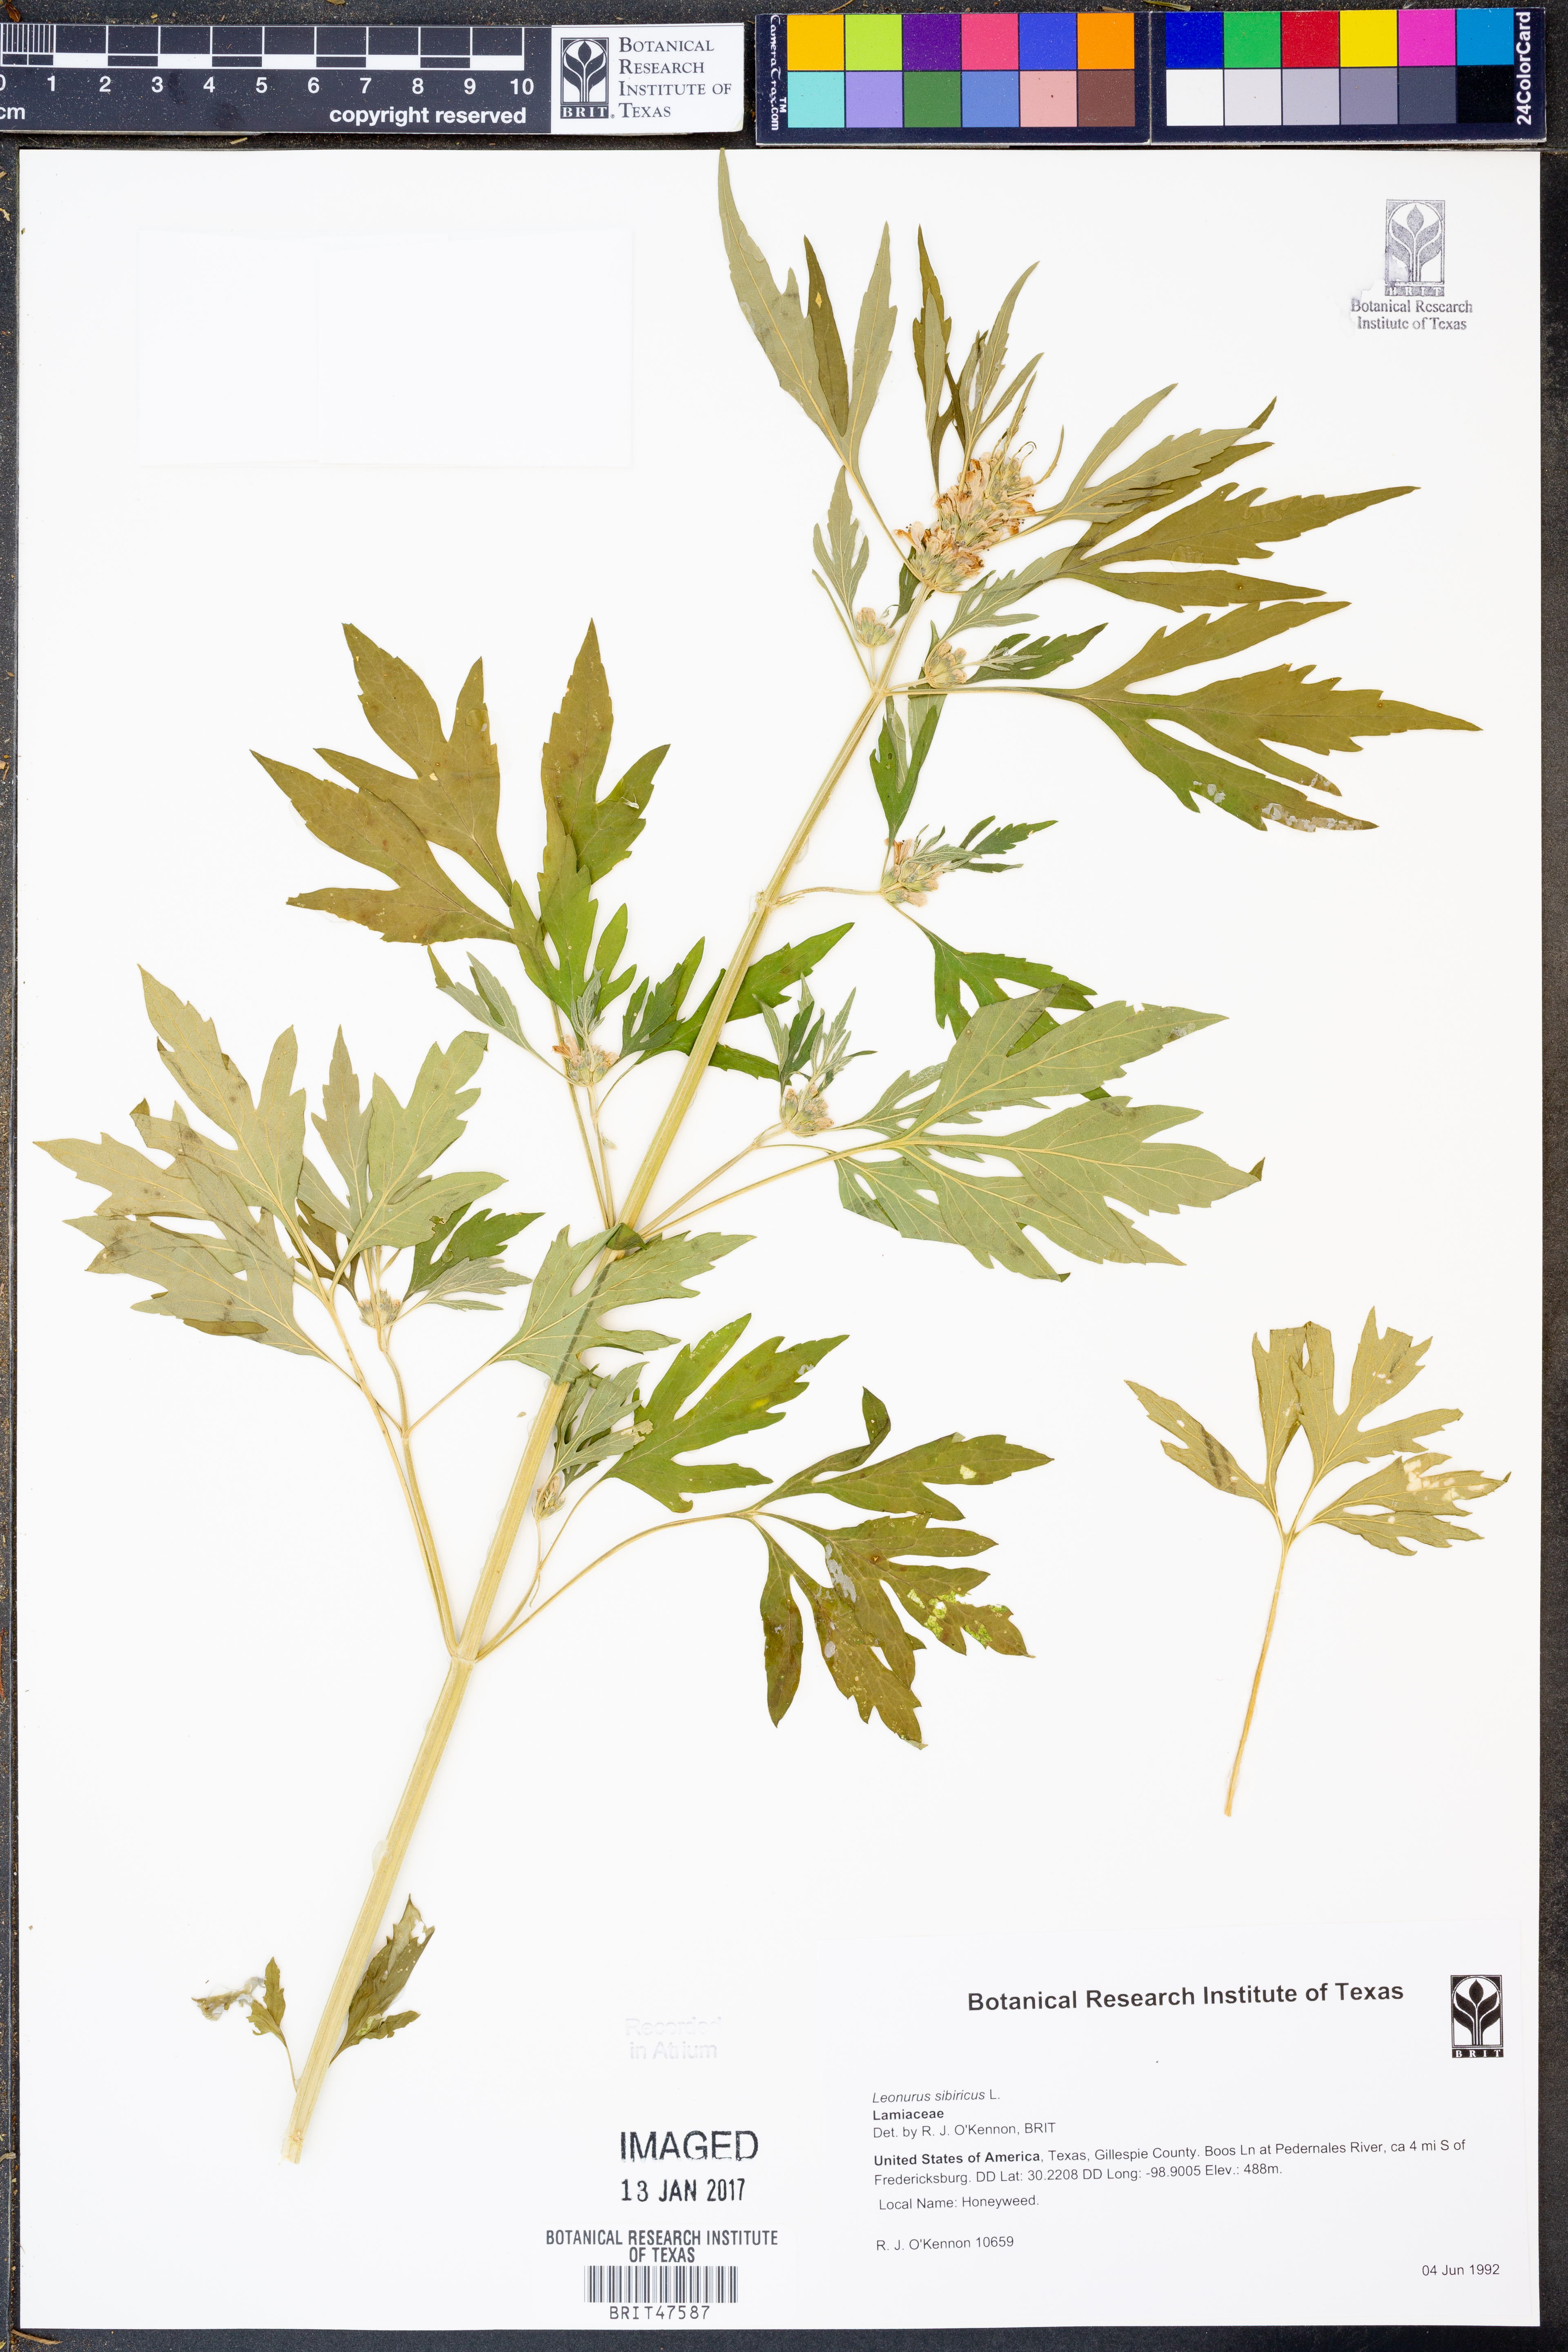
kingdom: Plantae
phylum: Tracheophyta
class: Magnoliopsida
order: Lamiales
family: Lamiaceae
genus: Leonurus
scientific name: Leonurus sibiricus
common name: Honeyweed
